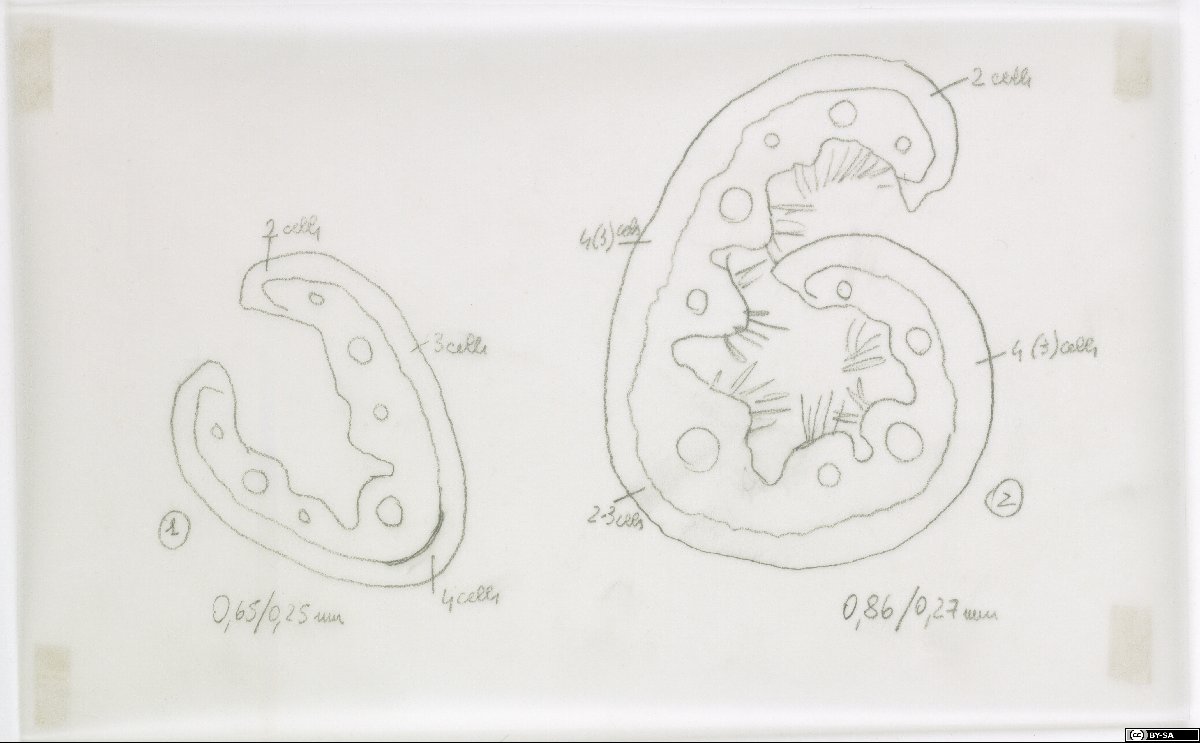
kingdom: Plantae
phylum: Tracheophyta
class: Liliopsida
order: Poales
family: Poaceae
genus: Festuca
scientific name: Festuca pallens
